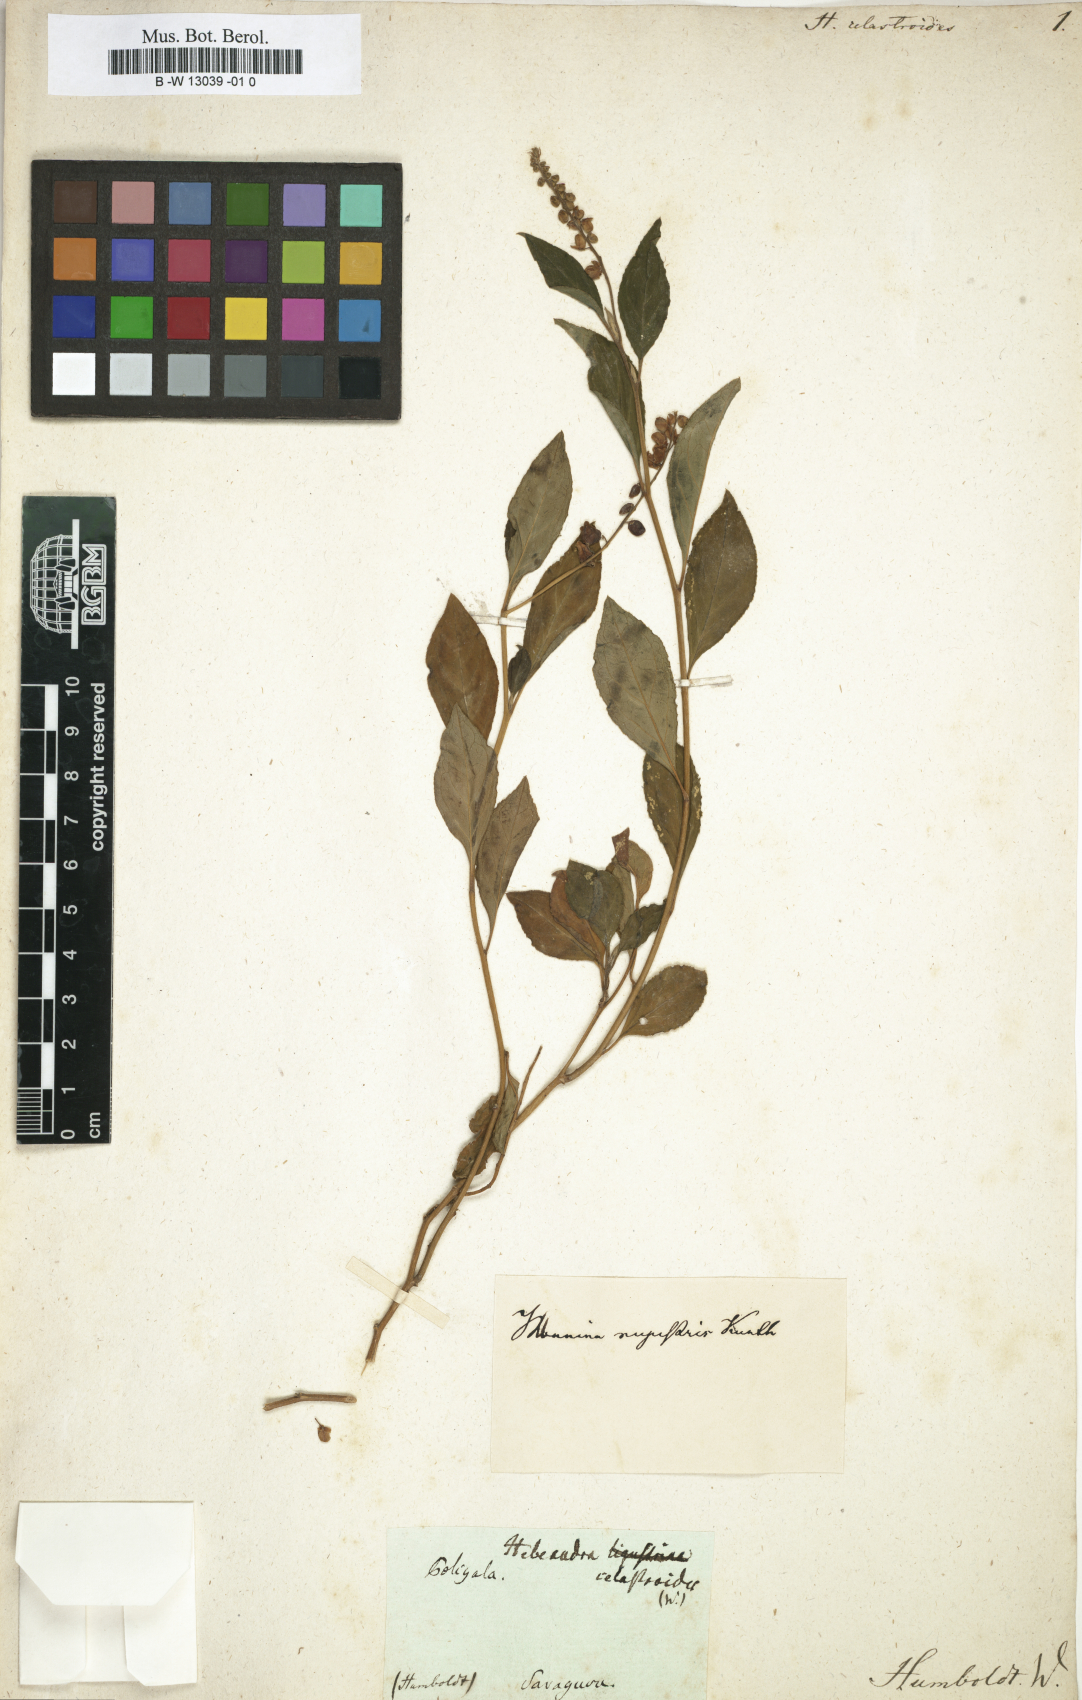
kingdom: Plantae
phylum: Tracheophyta
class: Magnoliopsida
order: Fabales
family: Polygalaceae
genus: Monnina
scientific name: Monnina celastroides
